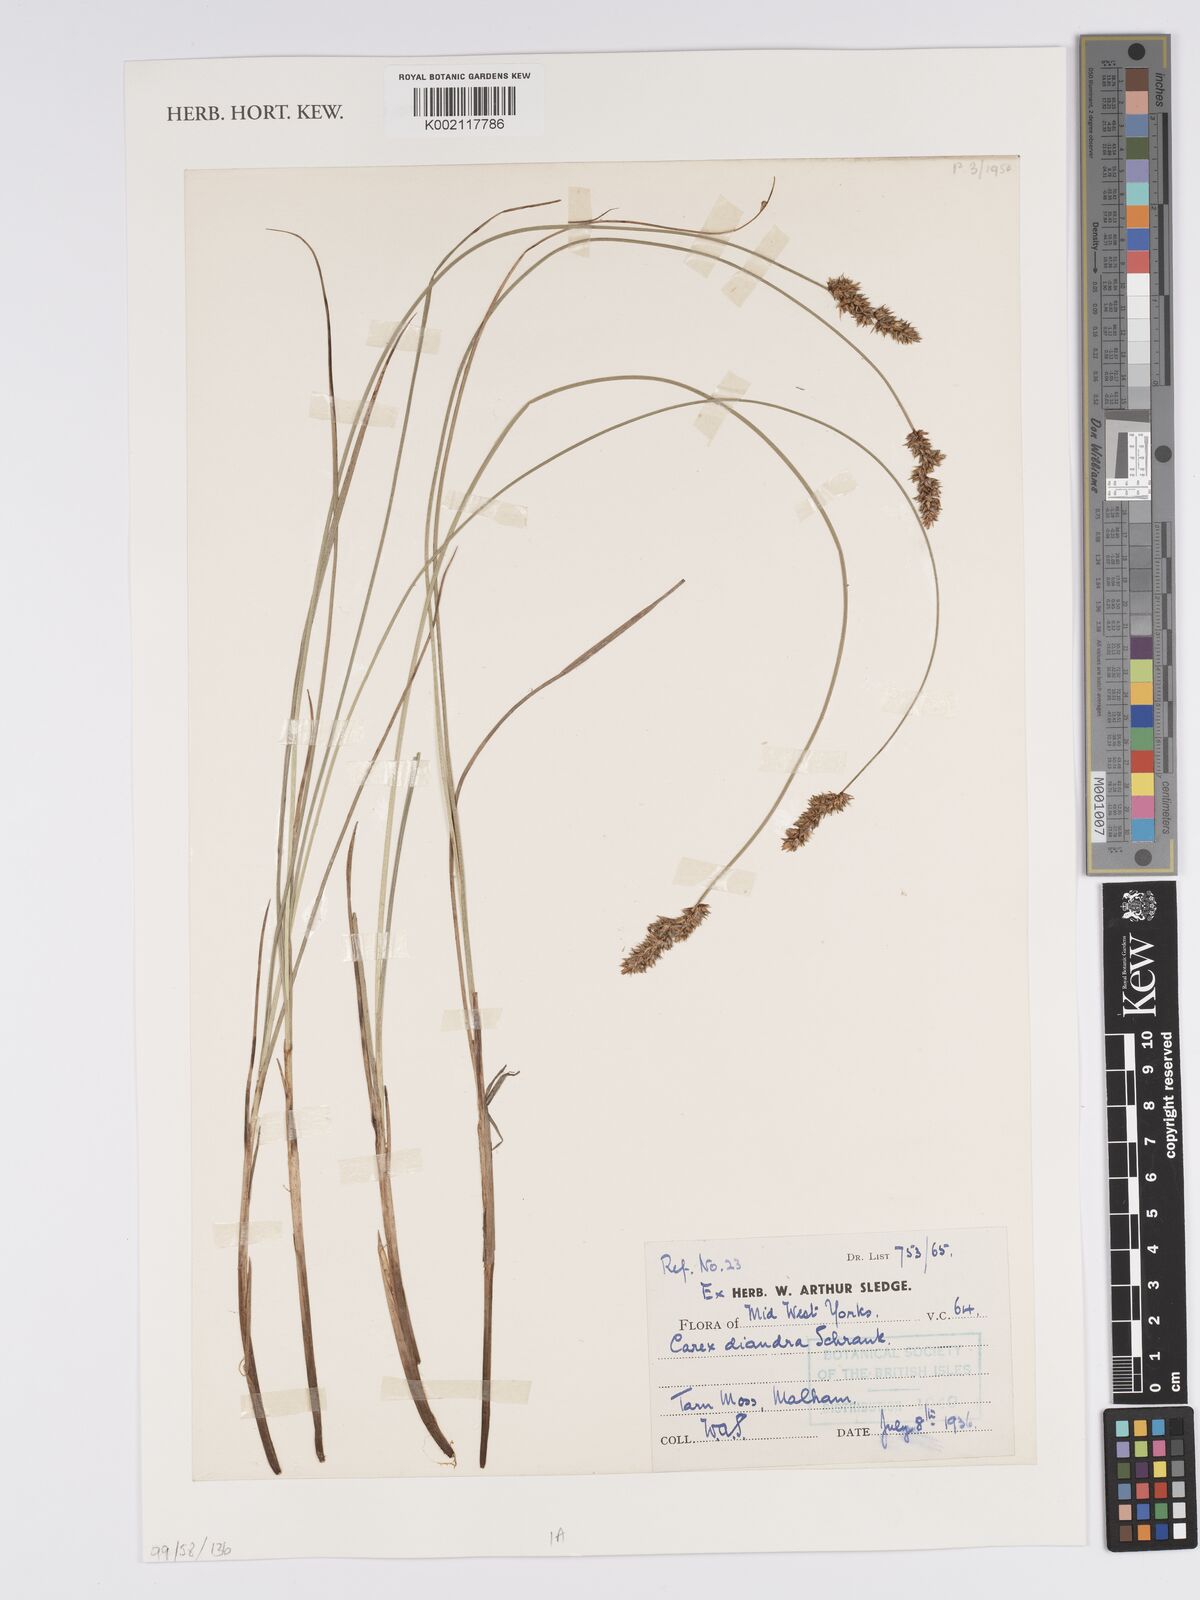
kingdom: Plantae
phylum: Tracheophyta
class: Liliopsida
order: Poales
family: Cyperaceae
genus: Carex
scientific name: Carex diandra
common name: Lesser tussock-sedge
